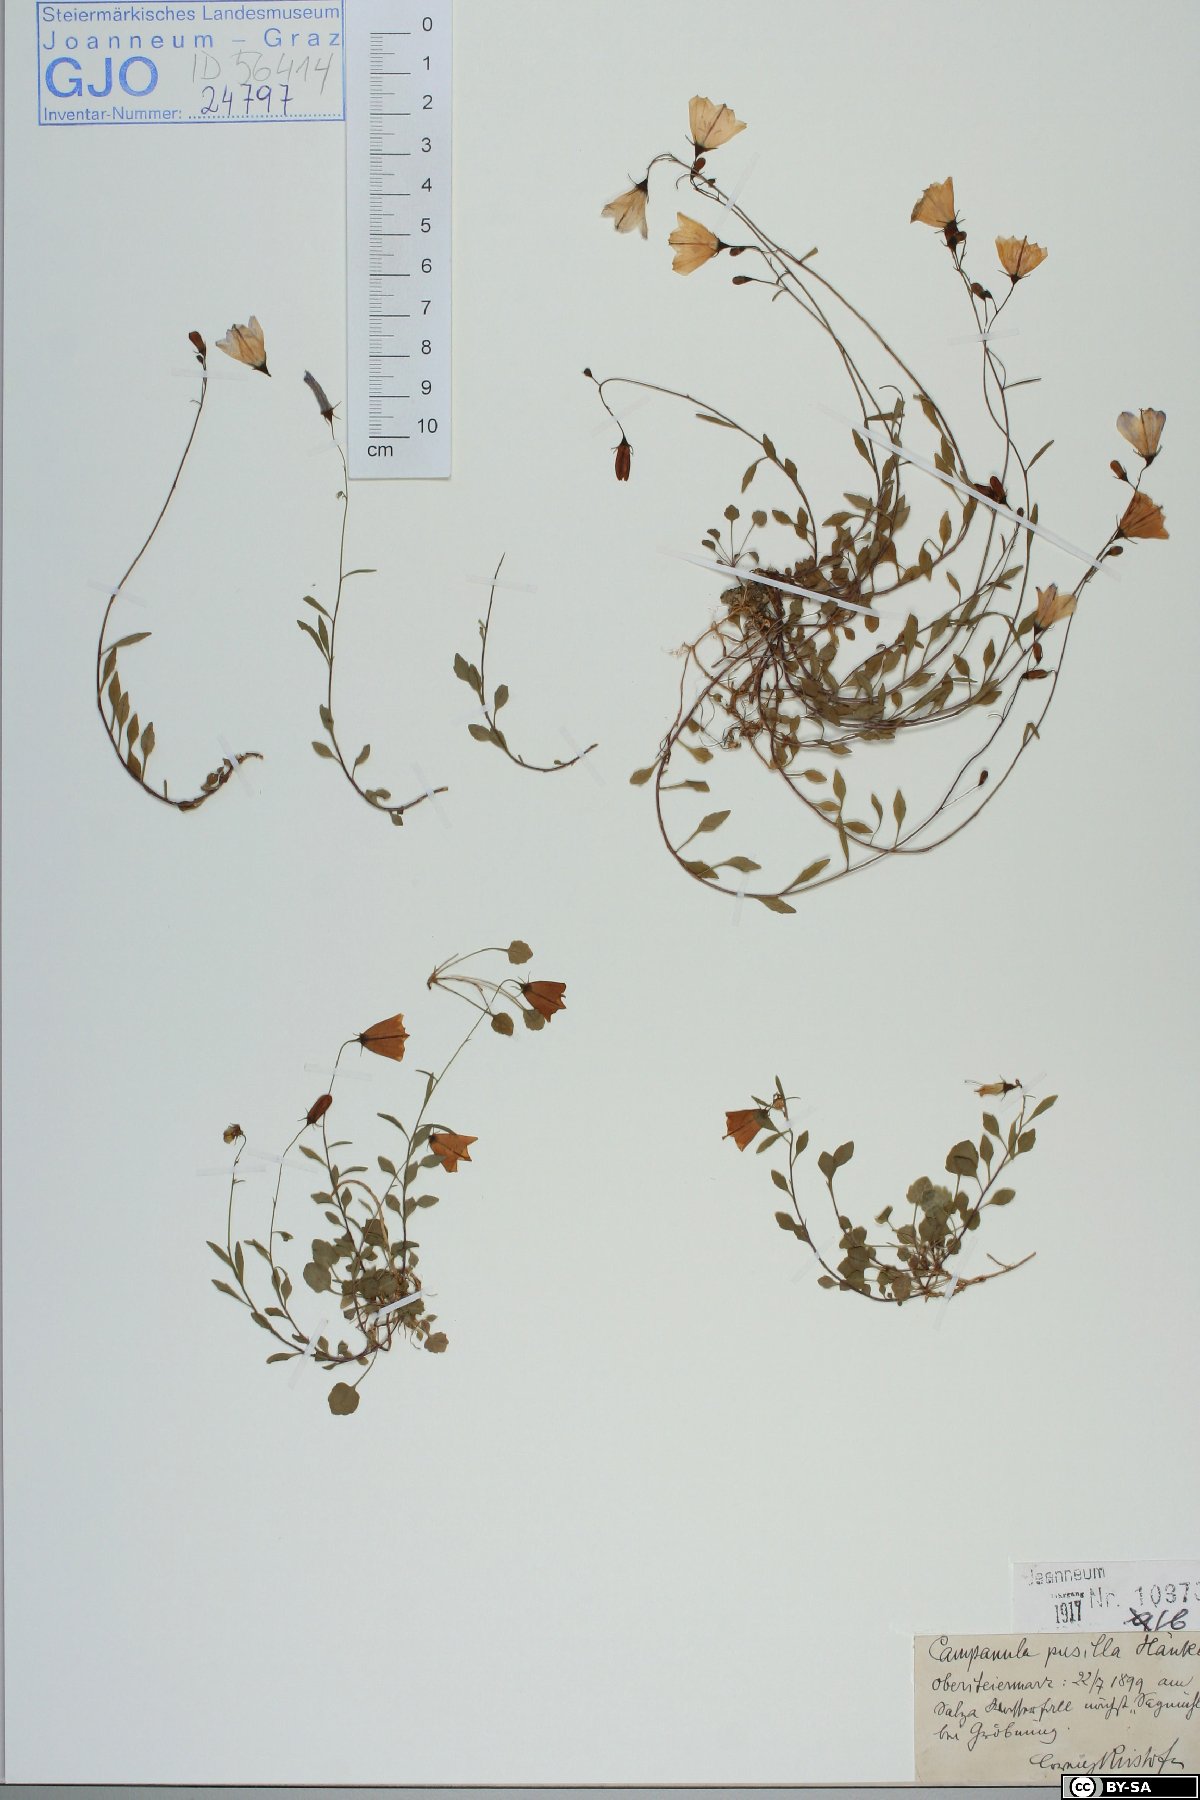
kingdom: Plantae
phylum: Tracheophyta
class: Magnoliopsida
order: Asterales
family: Campanulaceae
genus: Campanula
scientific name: Campanula cochleariifolia
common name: Fairies'-thimbles
